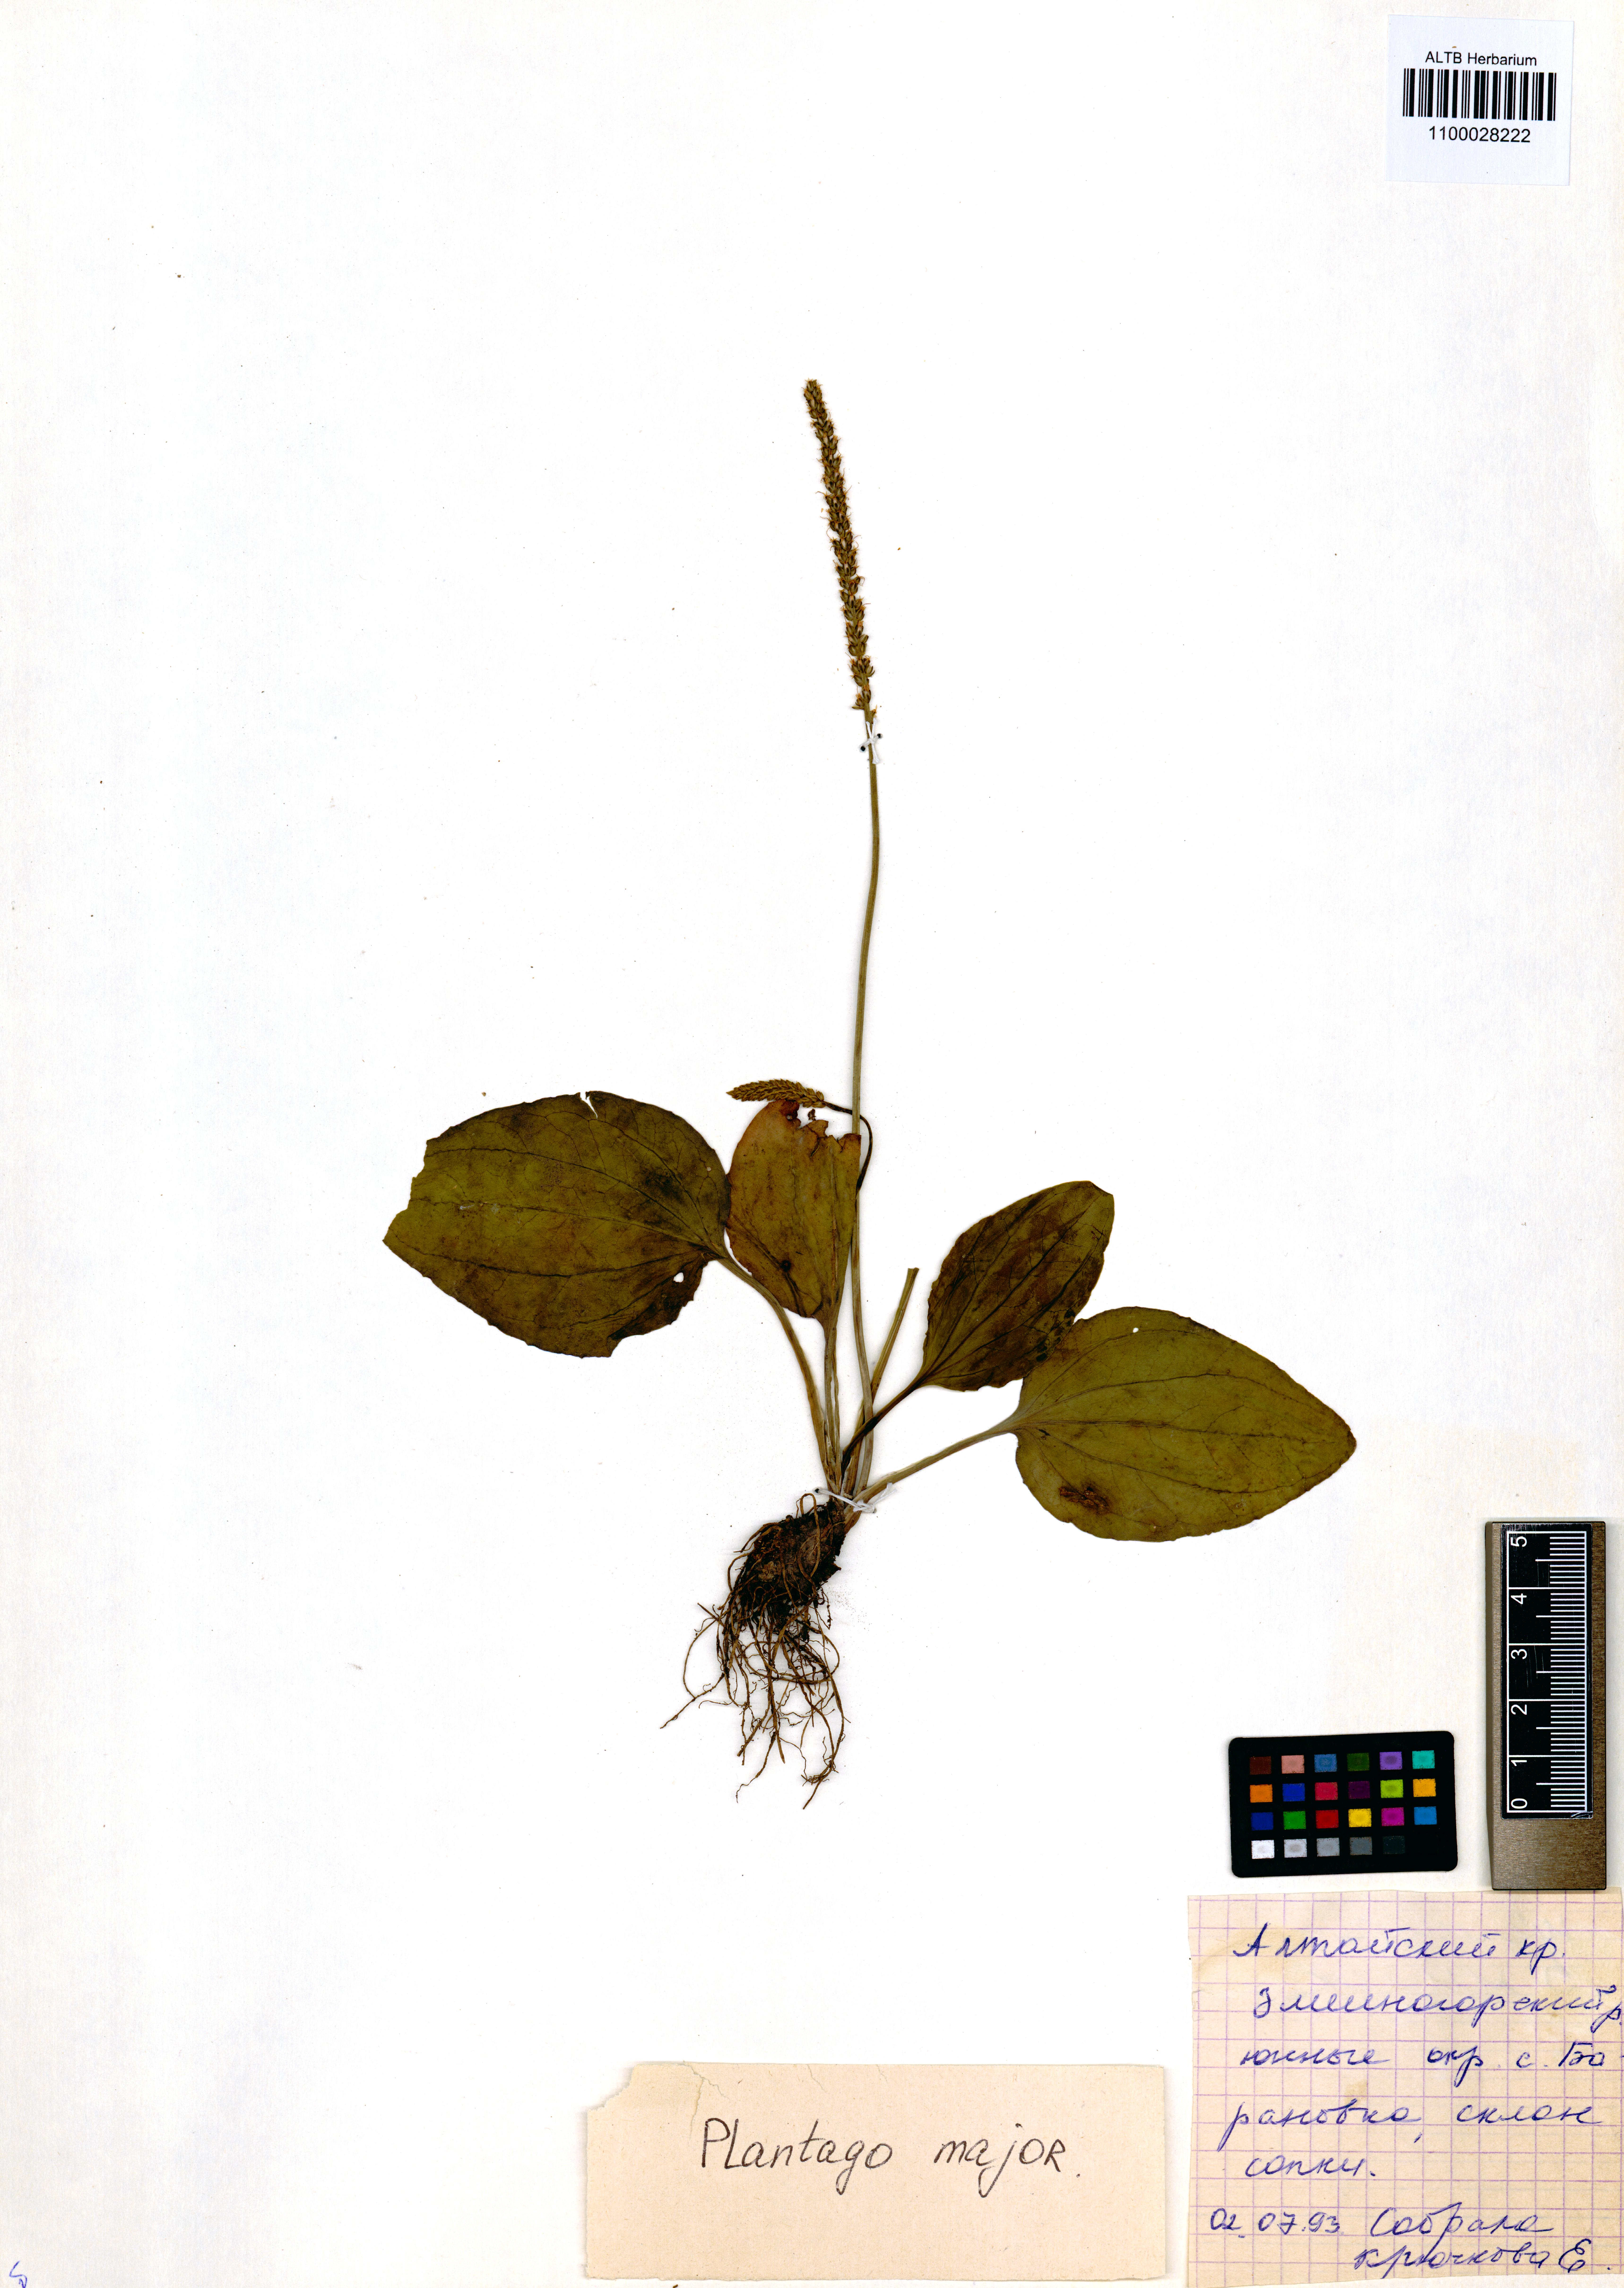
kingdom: Plantae
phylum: Tracheophyta
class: Magnoliopsida
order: Lamiales
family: Plantaginaceae
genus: Plantago
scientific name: Plantago major
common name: Common plantain
